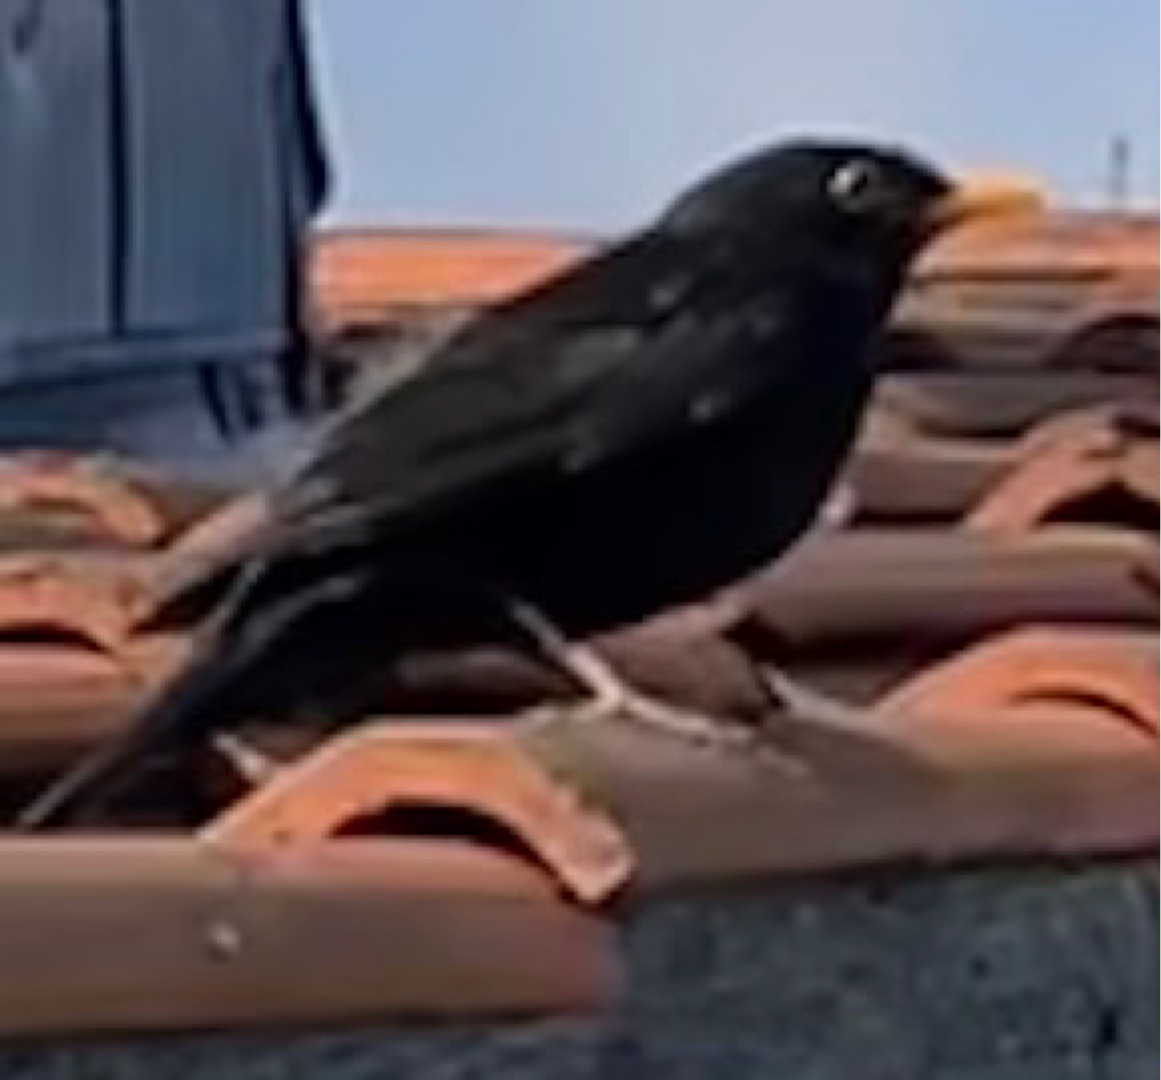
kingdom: Animalia
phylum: Chordata
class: Aves
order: Passeriformes
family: Turdidae
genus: Turdus
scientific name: Turdus merula
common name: Solsort
